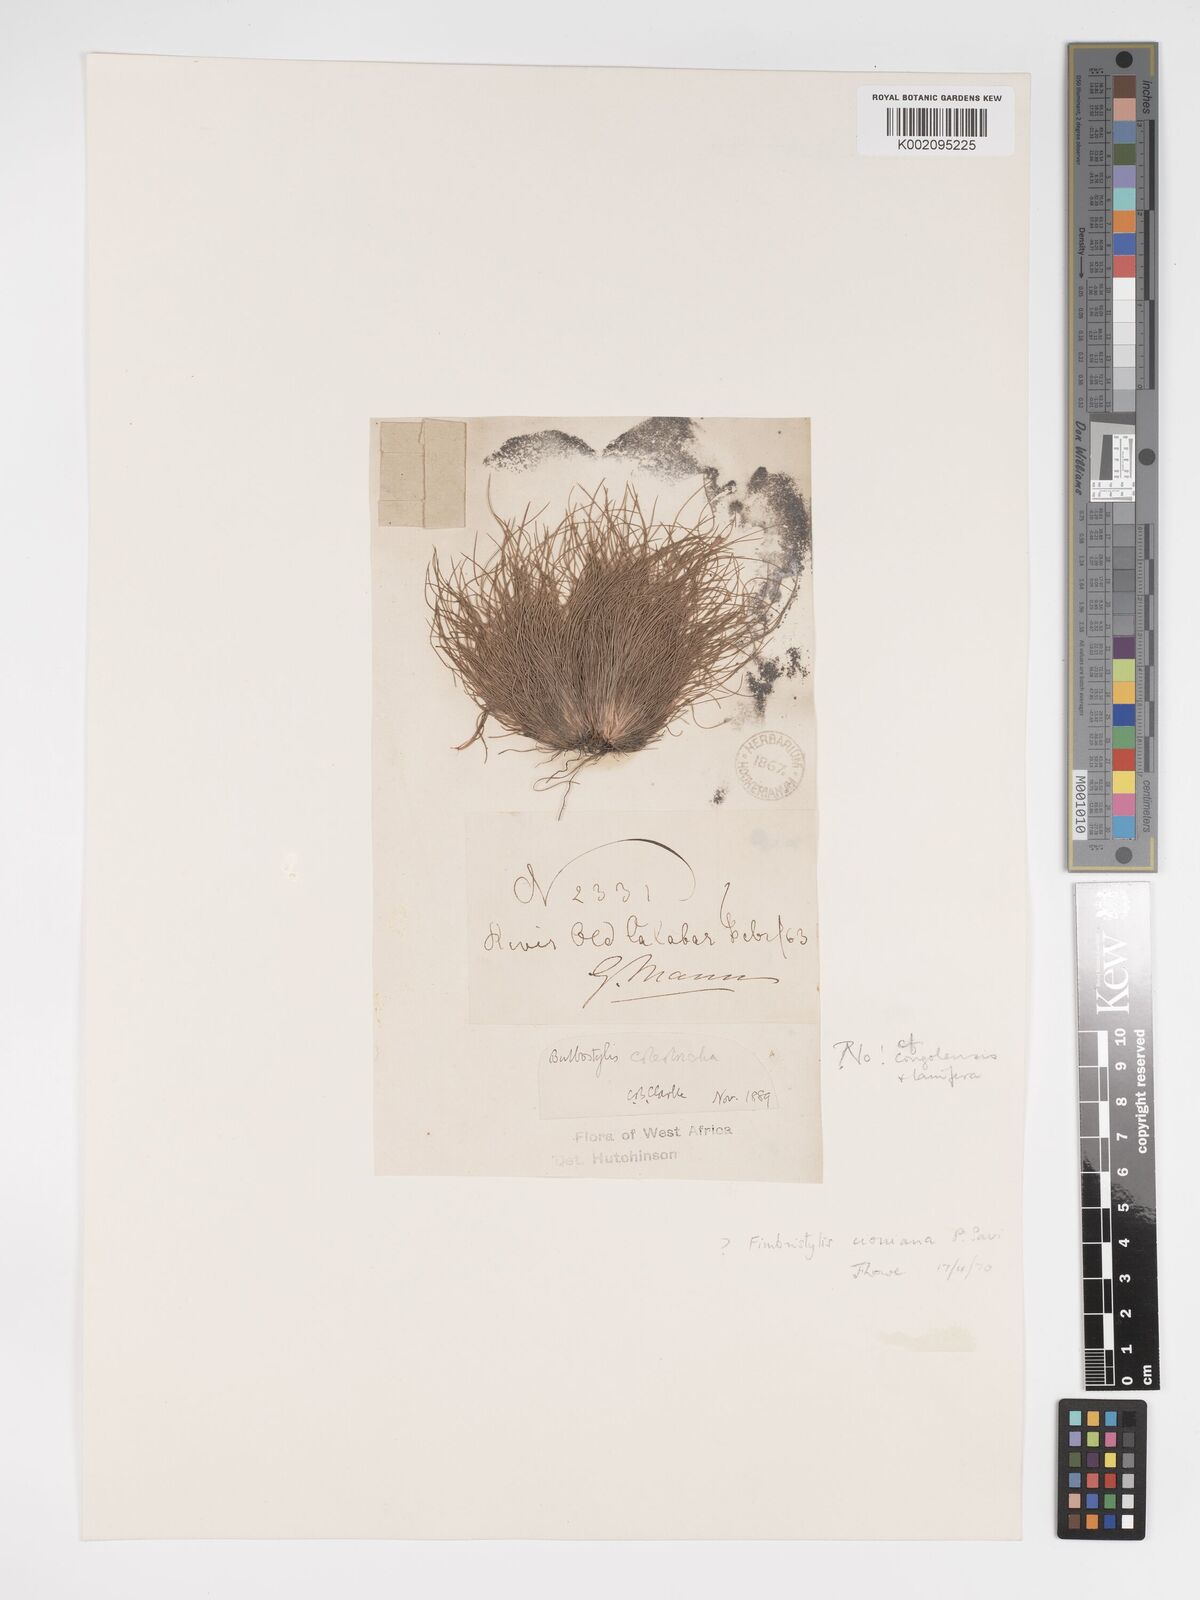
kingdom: Plantae
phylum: Tracheophyta
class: Liliopsida
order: Poales
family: Cyperaceae
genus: Bulbostylis
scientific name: Bulbostylis cioniana
